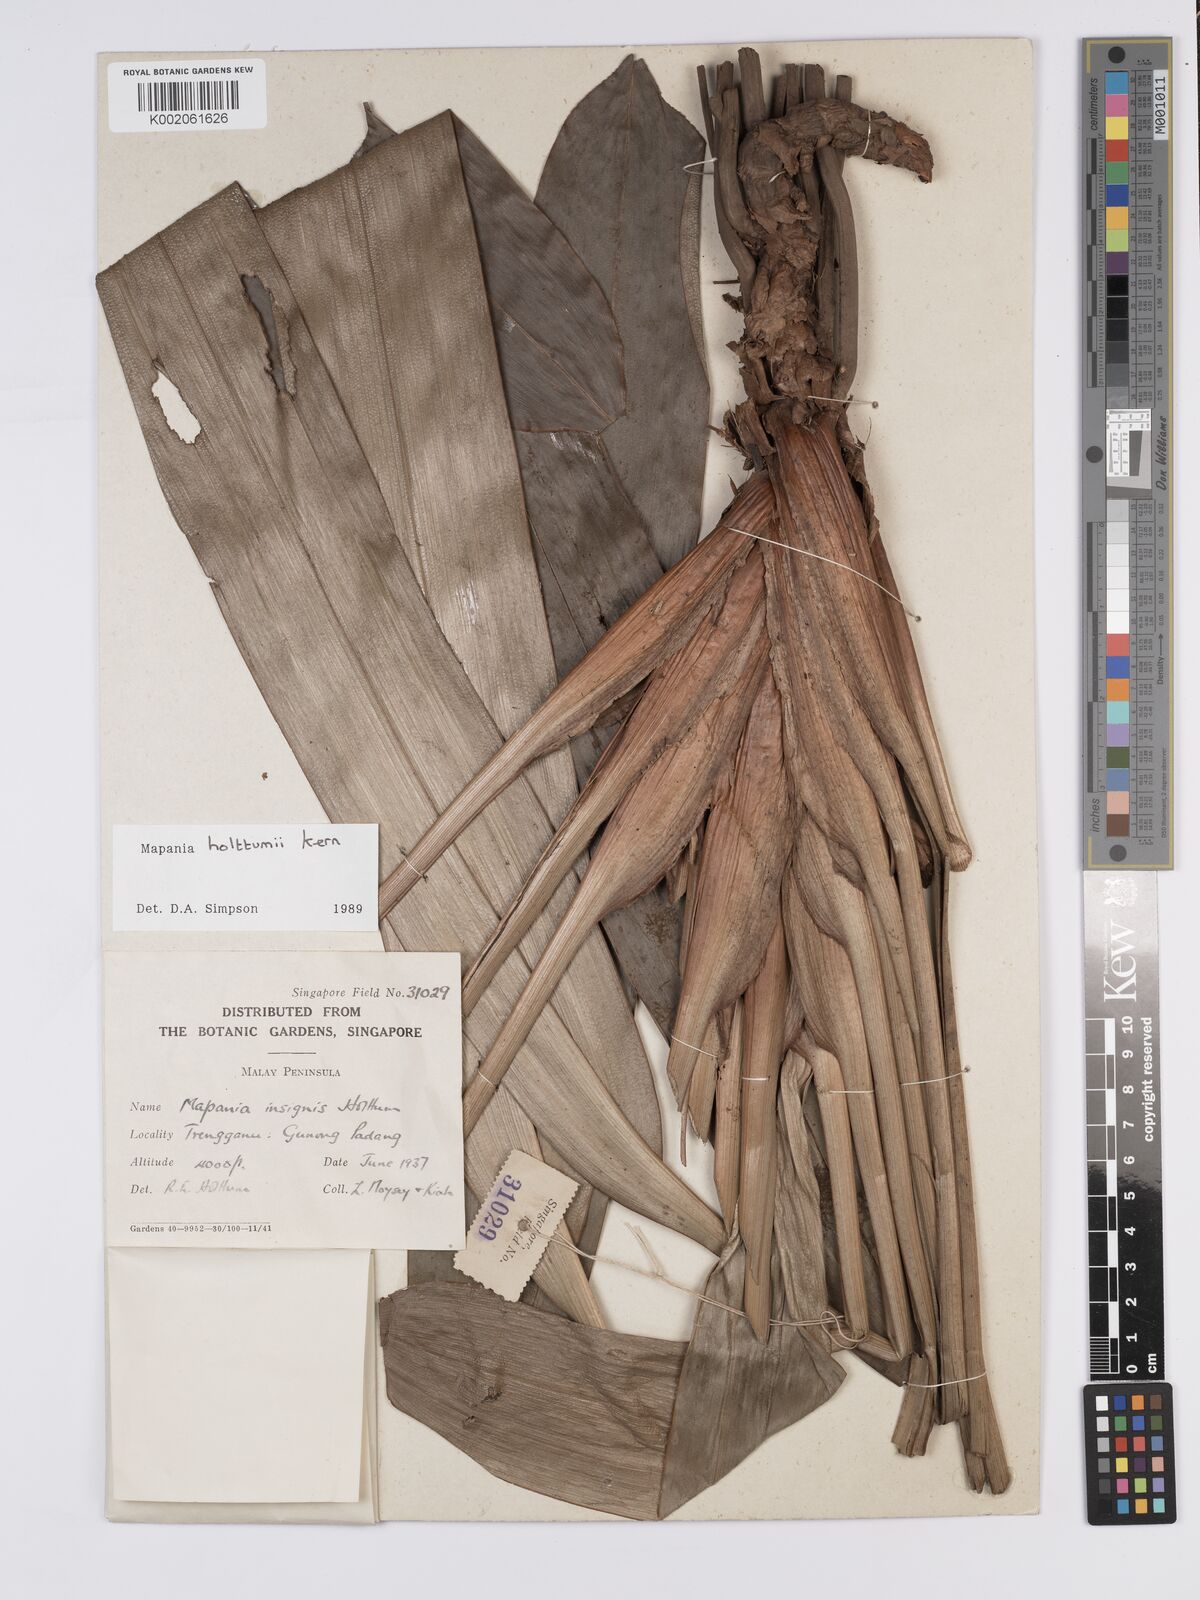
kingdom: Plantae
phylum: Tracheophyta
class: Liliopsida
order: Poales
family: Cyperaceae
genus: Mapania
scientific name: Mapania holttumii
